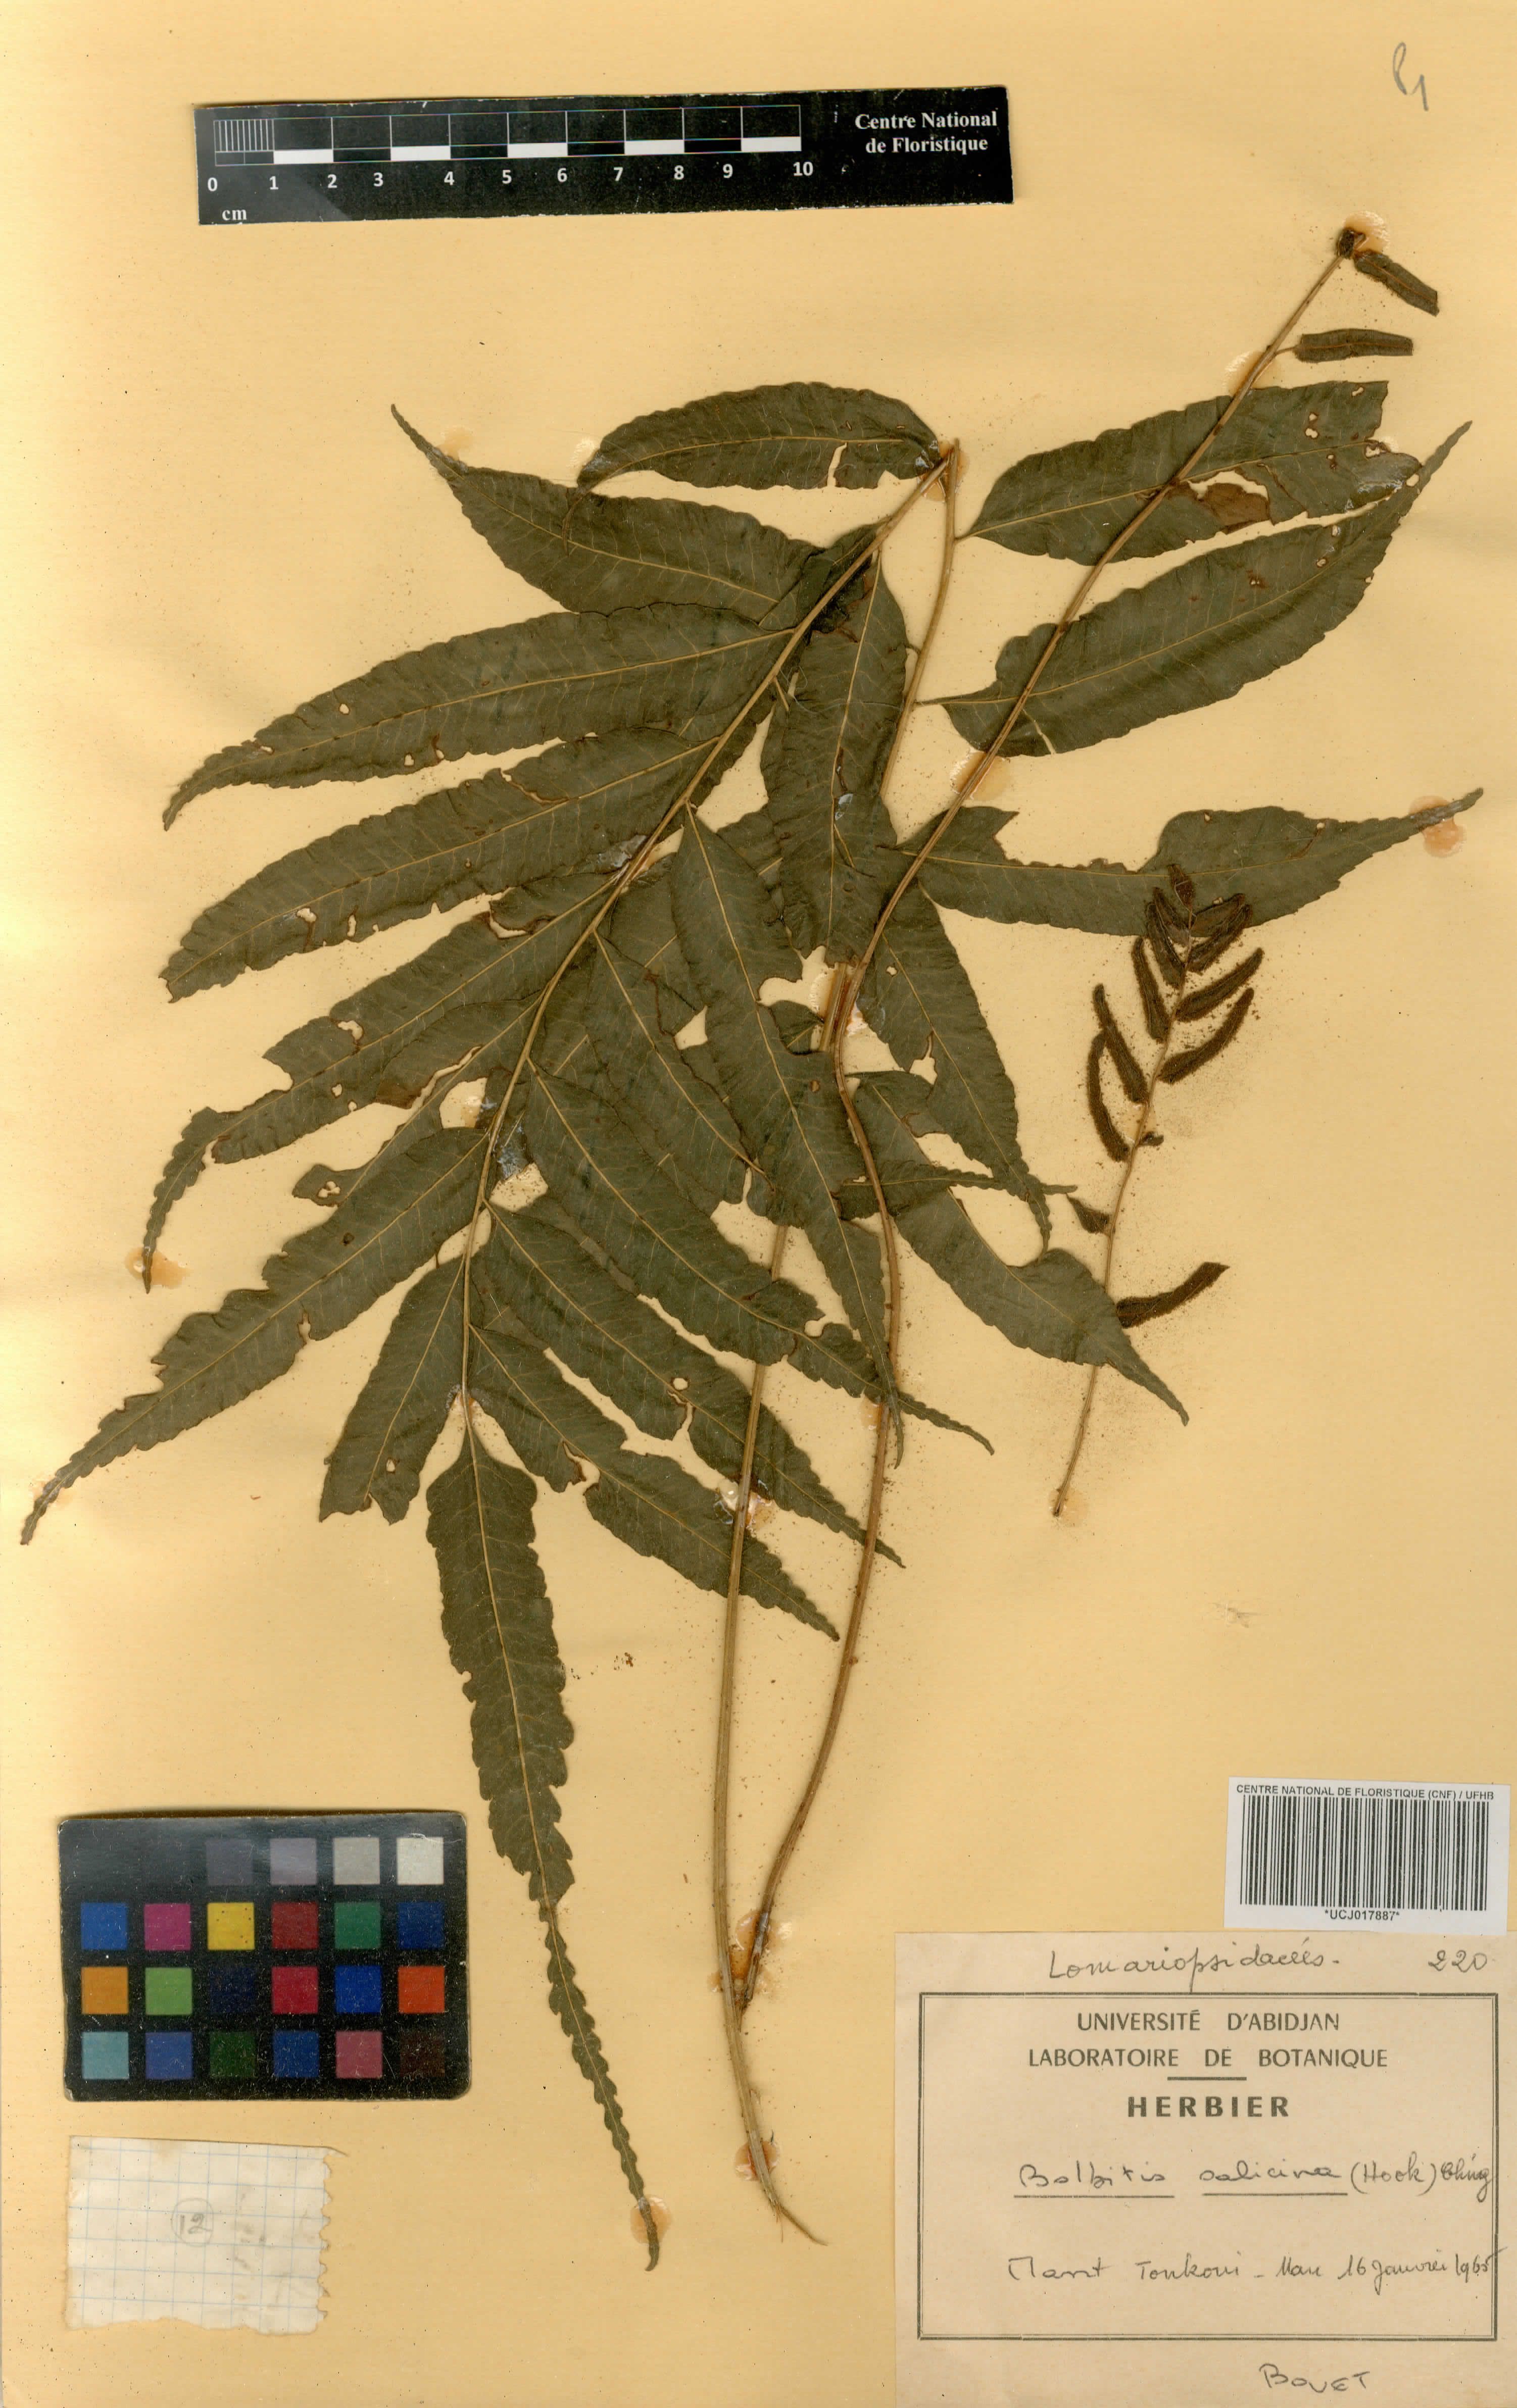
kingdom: Plantae
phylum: Tracheophyta
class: Polypodiopsida
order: Polypodiales
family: Dryopteridaceae
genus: Bolbitis
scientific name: Bolbitis salicina
